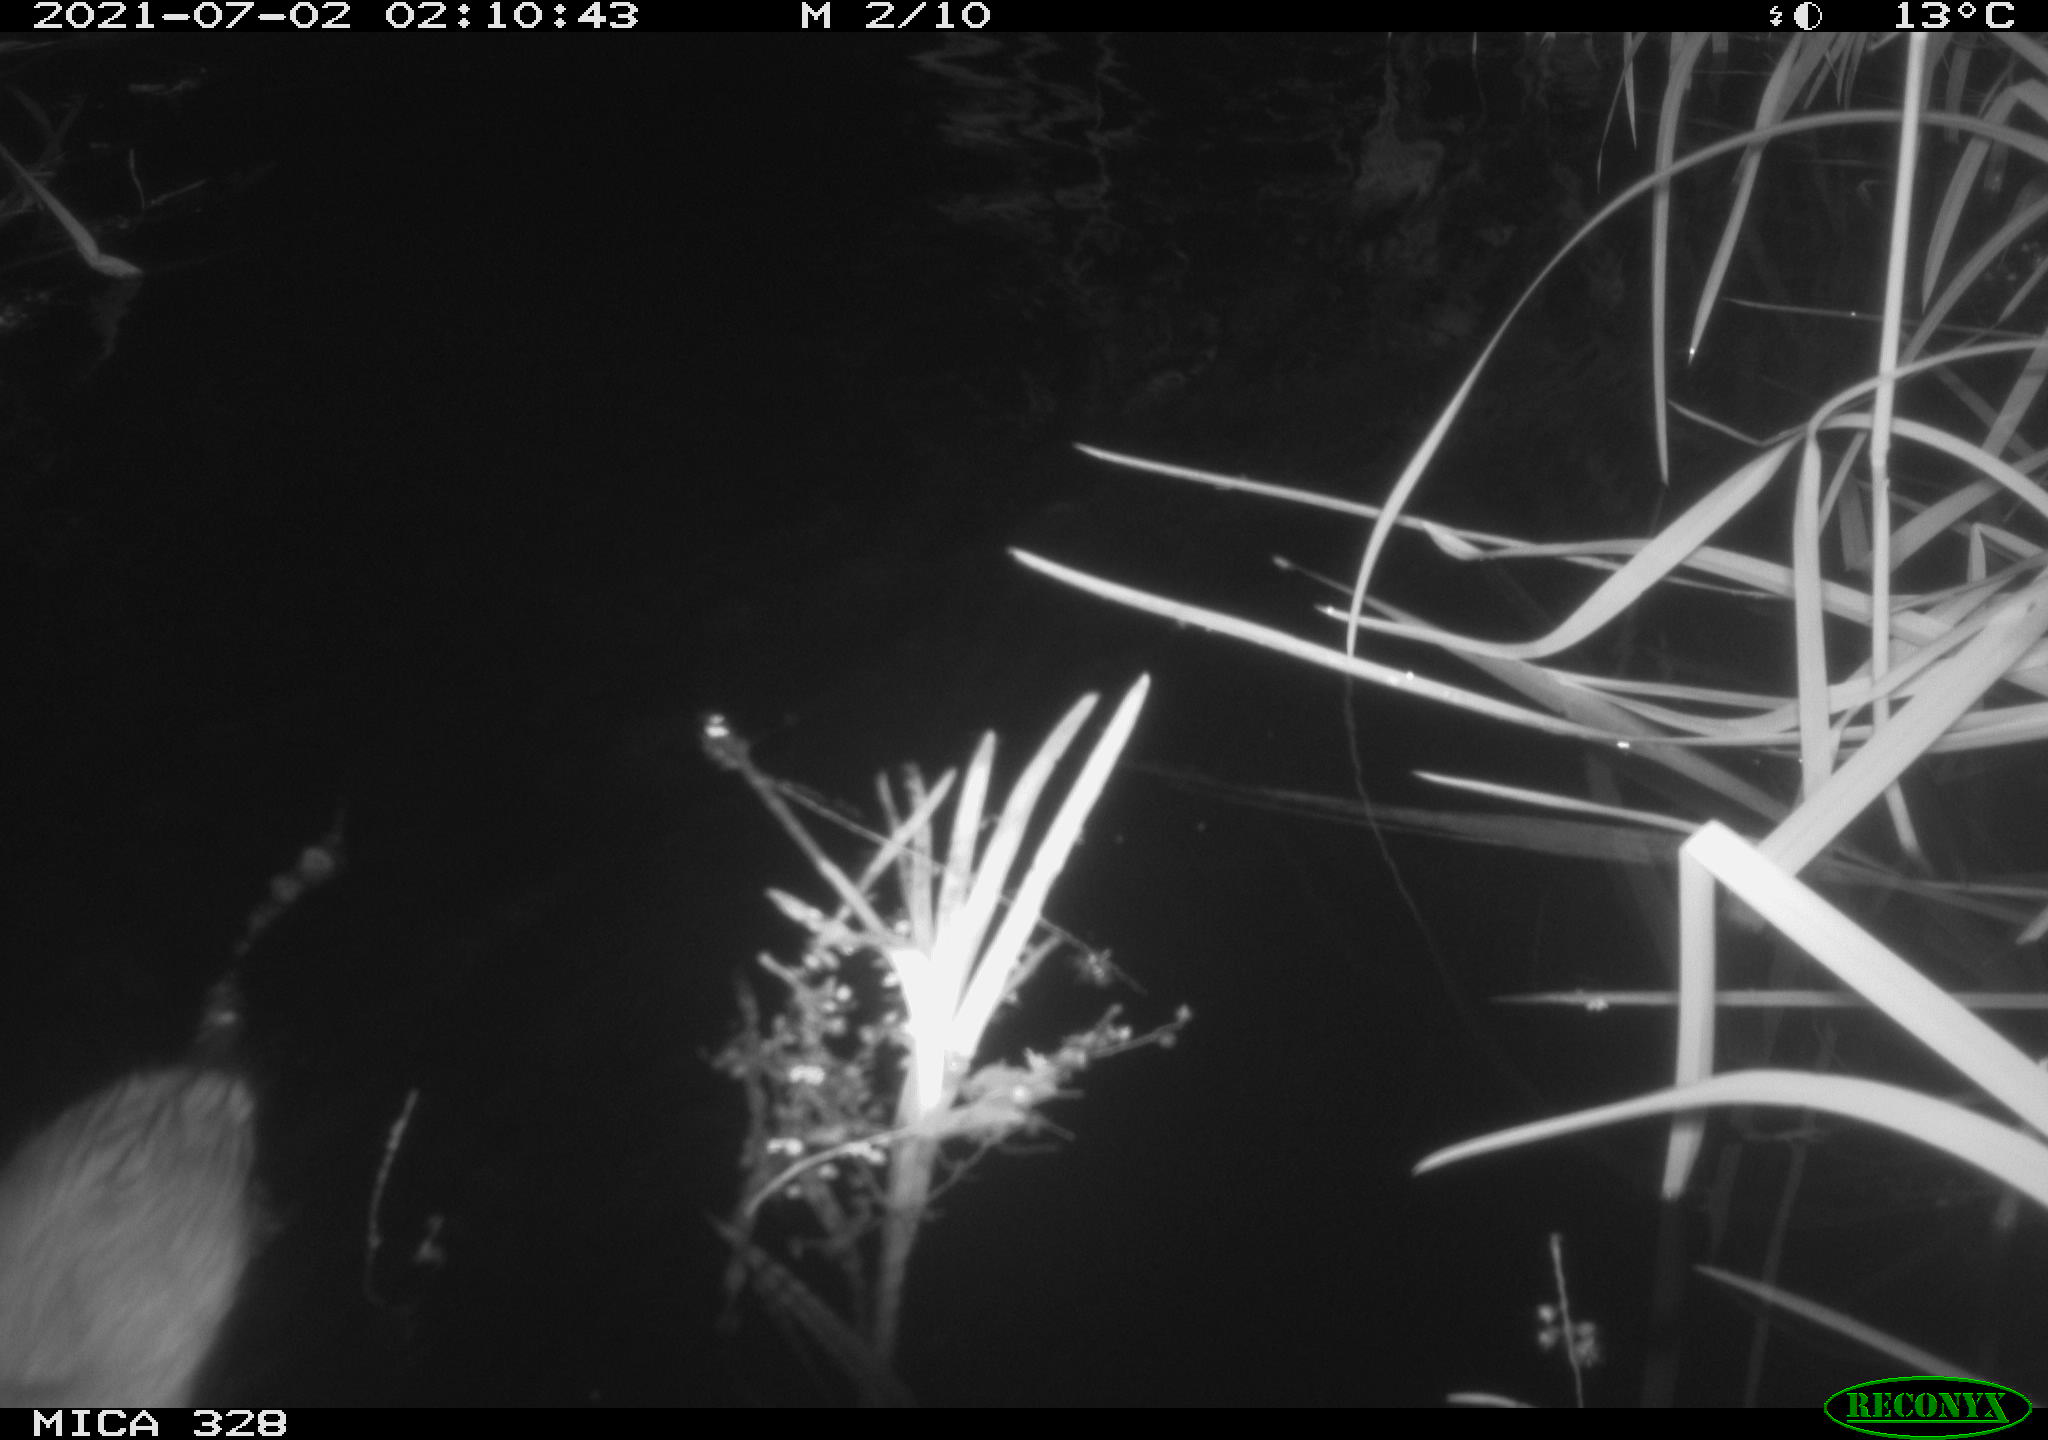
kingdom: Animalia
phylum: Chordata
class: Mammalia
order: Rodentia
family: Cricetidae
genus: Ondatra
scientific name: Ondatra zibethicus
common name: Muskrat
